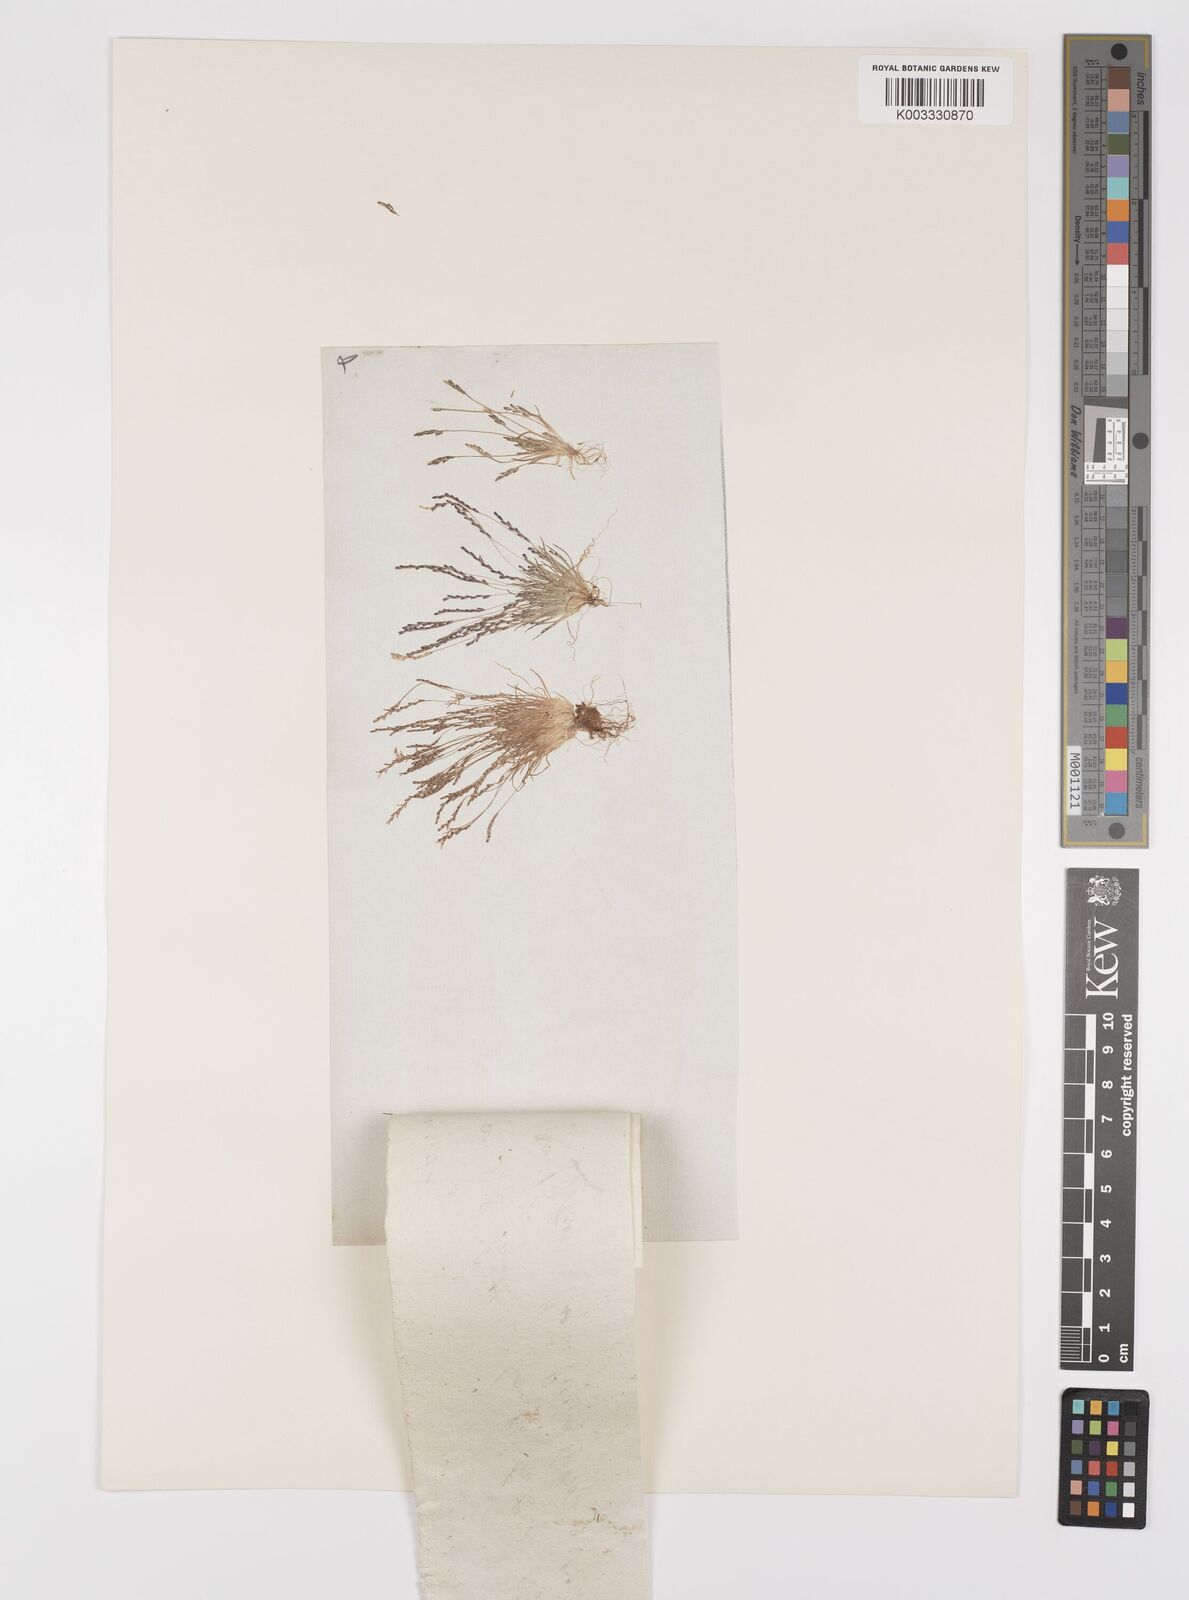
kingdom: Plantae
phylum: Tracheophyta
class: Liliopsida
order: Poales
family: Poaceae
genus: Mibora
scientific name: Mibora minima
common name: Early sand-grass
